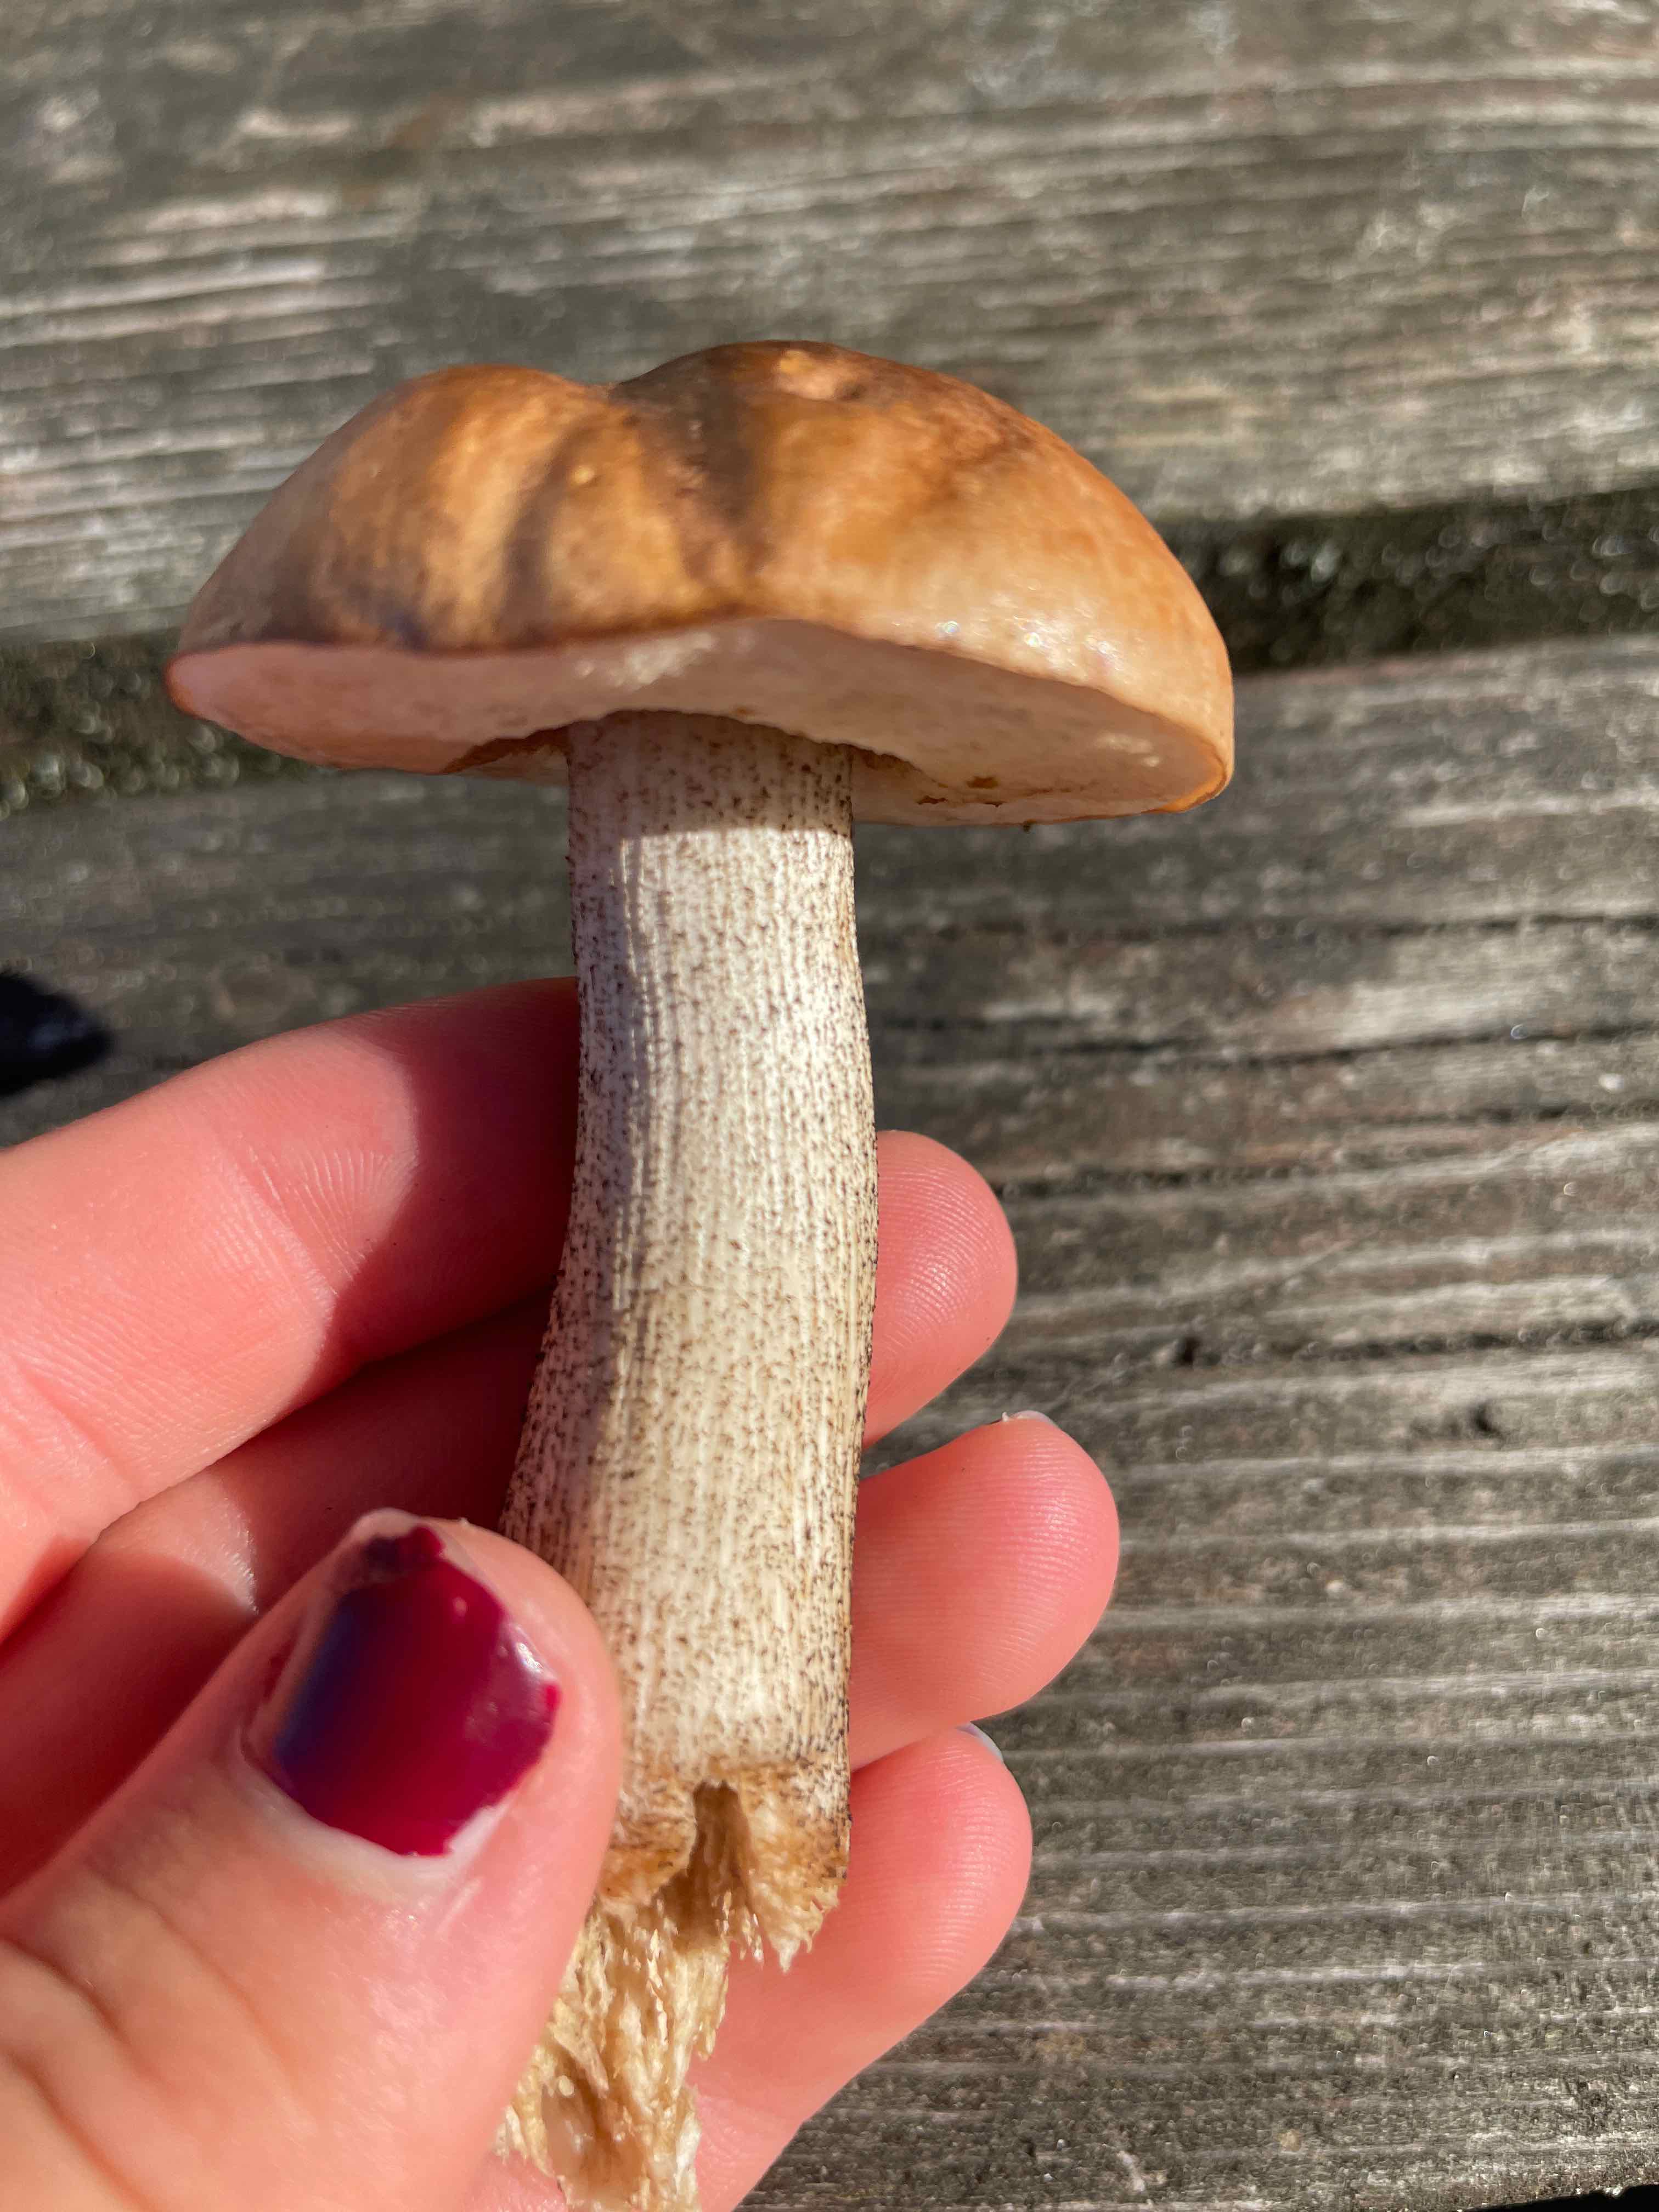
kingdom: Fungi
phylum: Basidiomycota
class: Agaricomycetes
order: Boletales
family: Boletaceae
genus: Leccinum
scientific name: Leccinum
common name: skælrørhat
